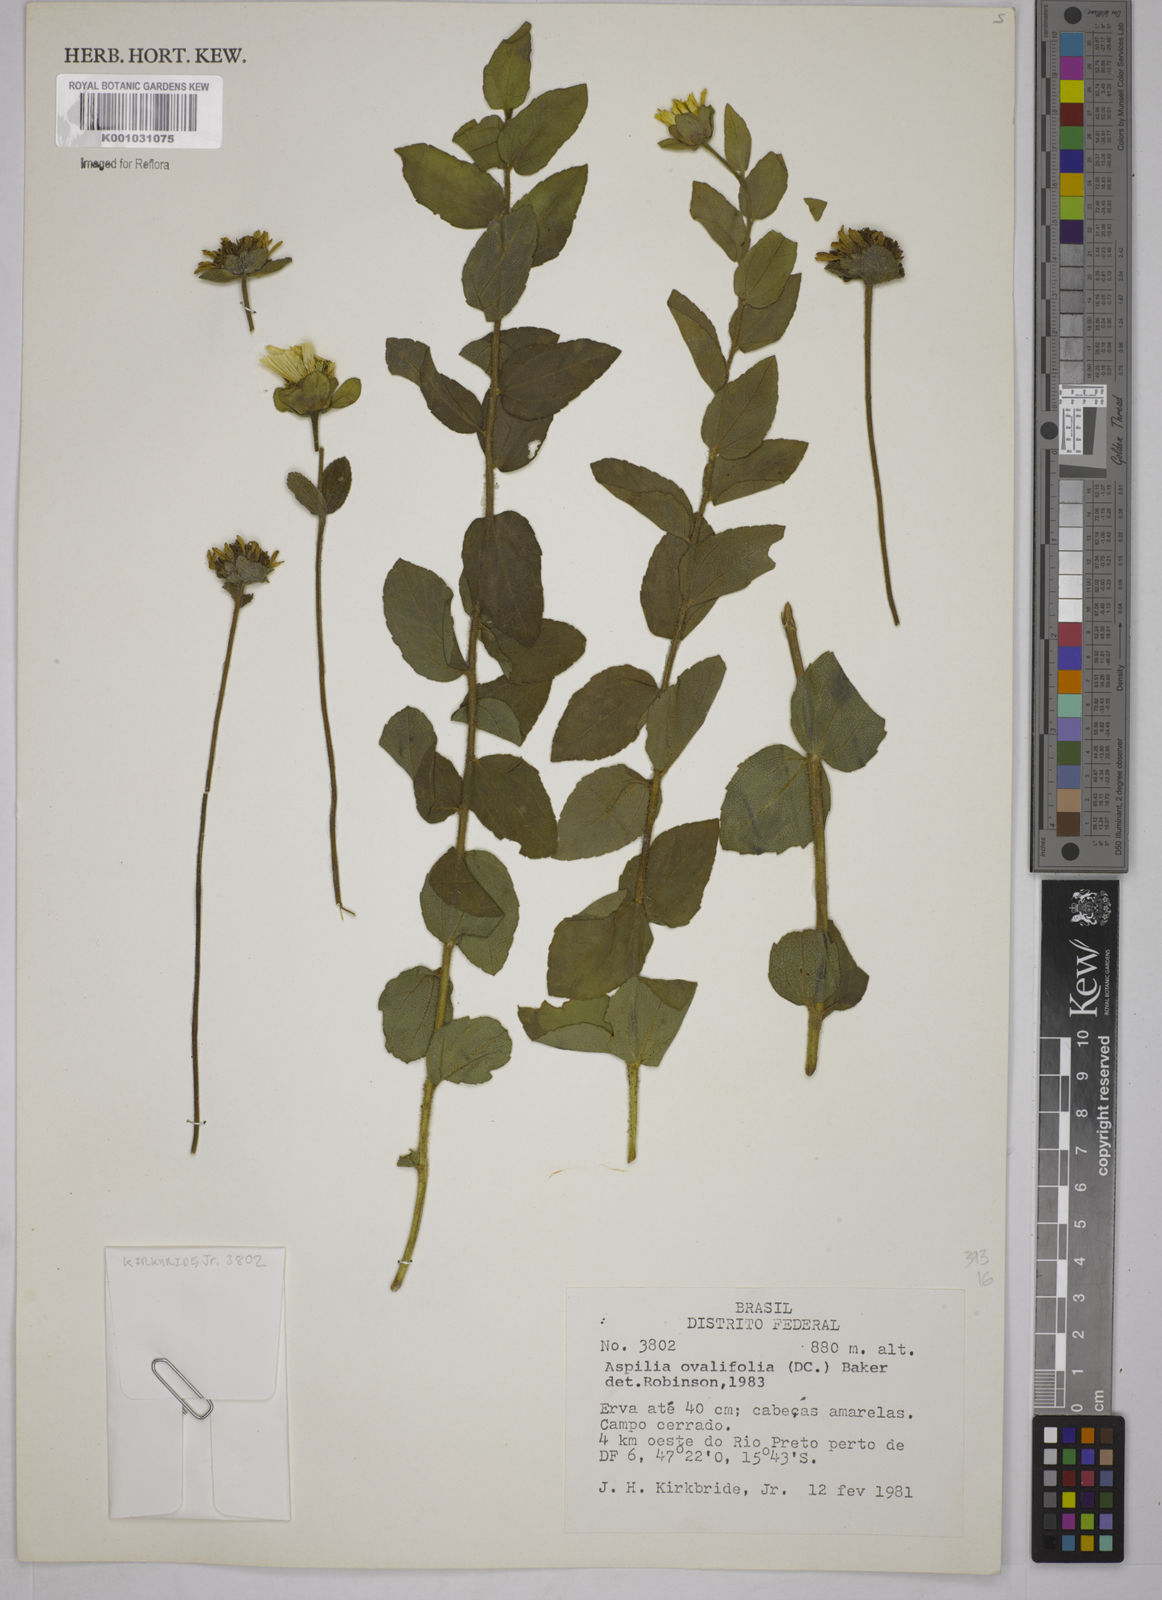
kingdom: Plantae
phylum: Tracheophyta
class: Magnoliopsida
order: Asterales
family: Asteraceae
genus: Wedelia
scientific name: Wedelia ovalifolia
